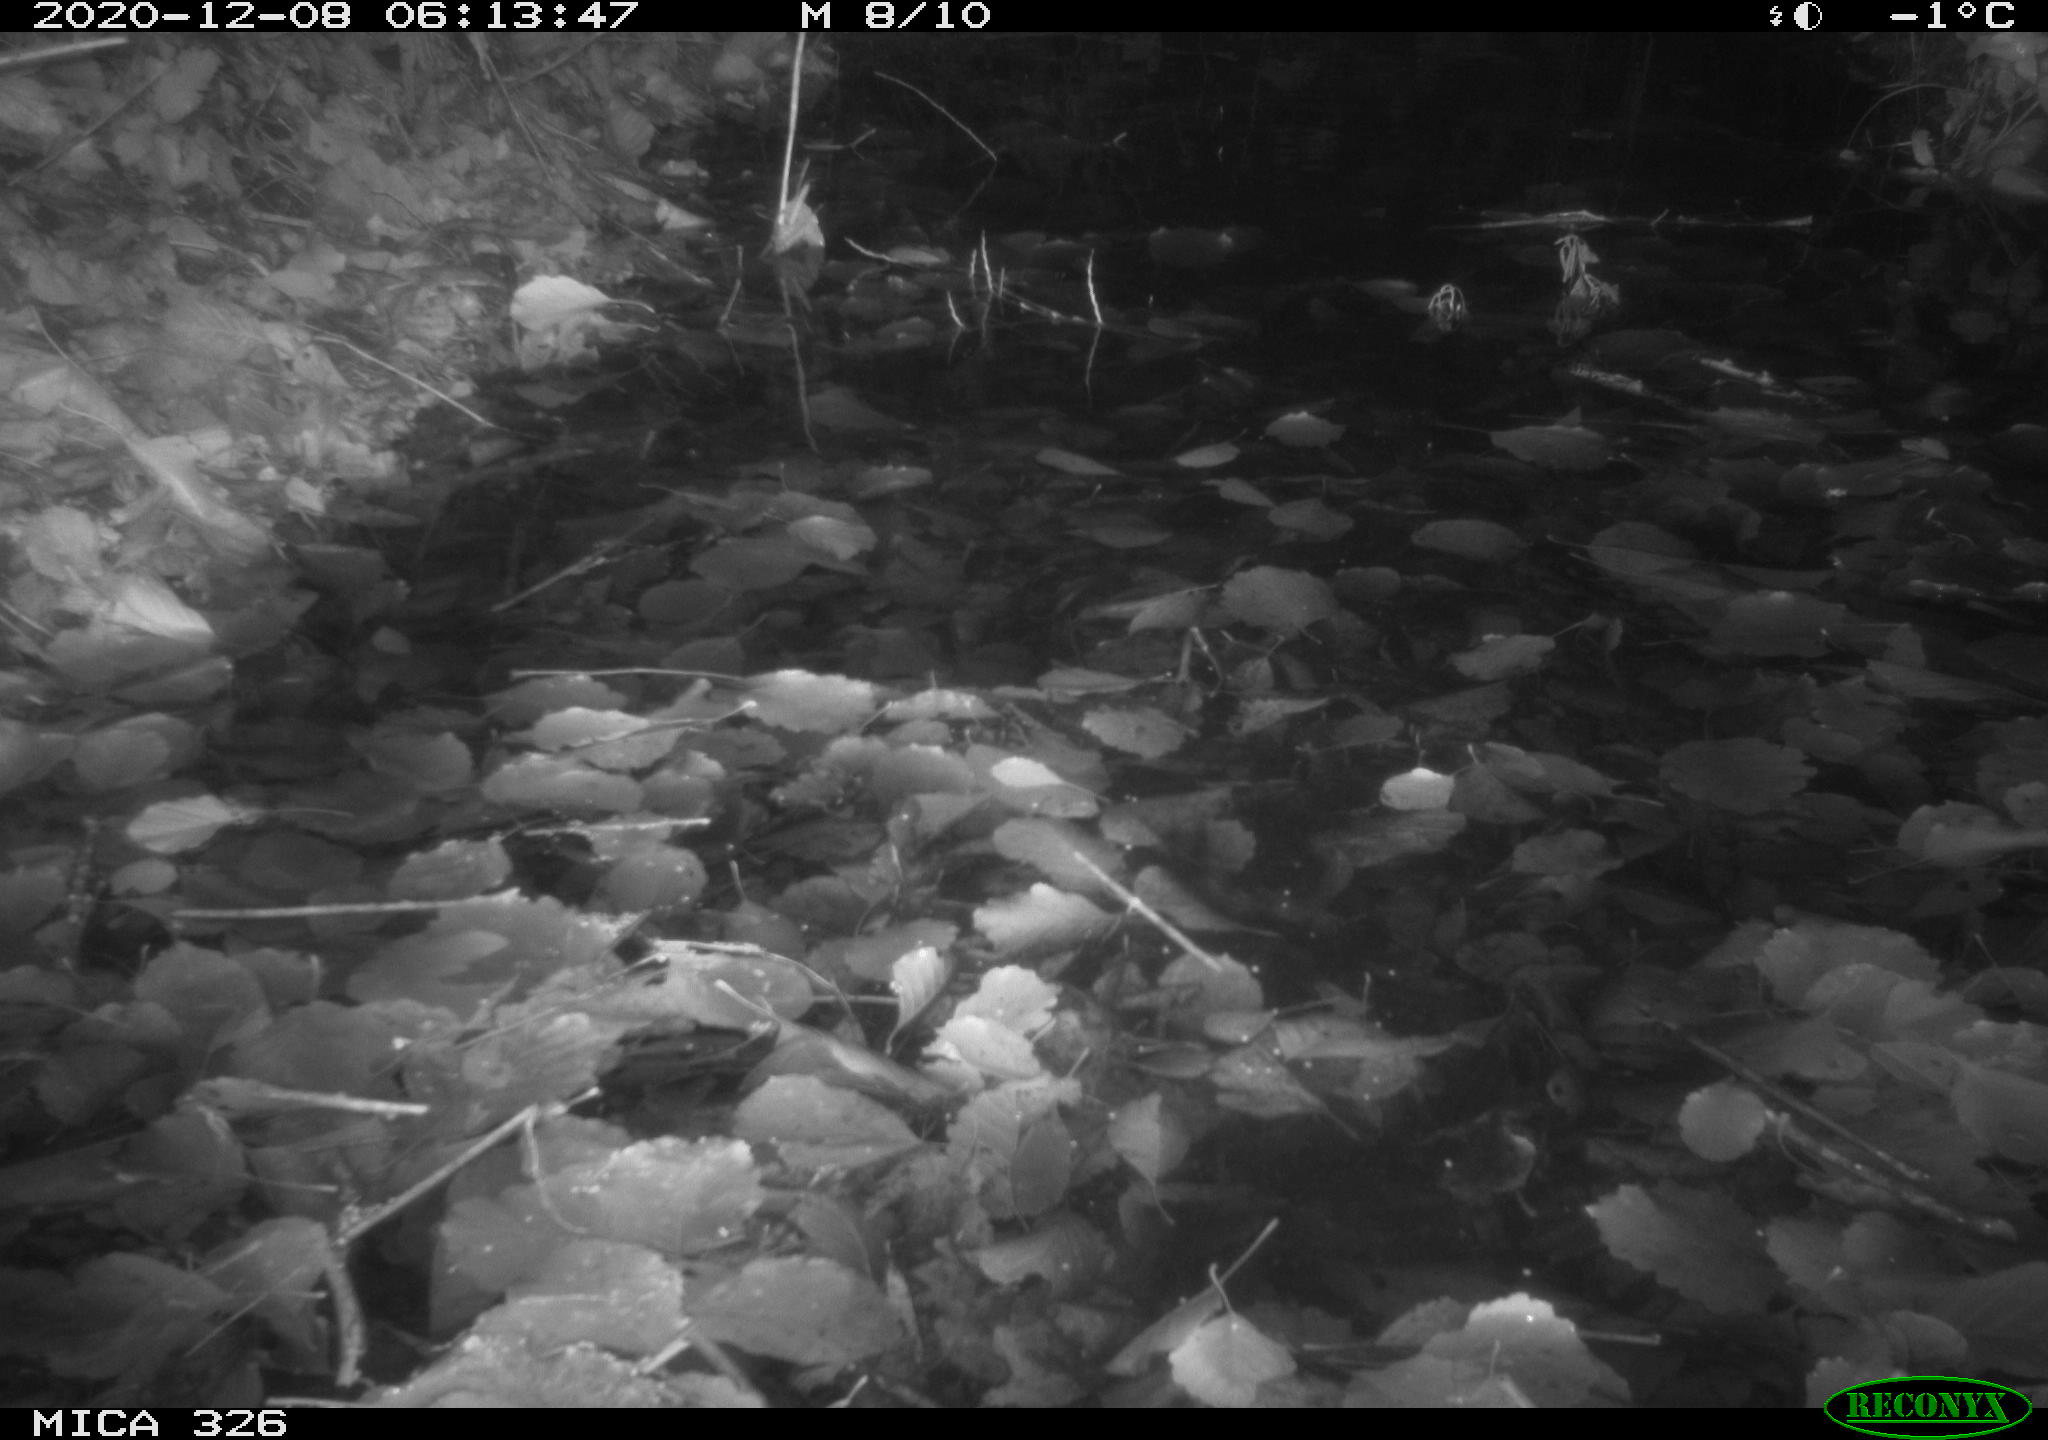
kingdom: Animalia
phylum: Chordata
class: Mammalia
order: Rodentia
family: Cricetidae
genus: Ondatra
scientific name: Ondatra zibethicus
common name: Muskrat
